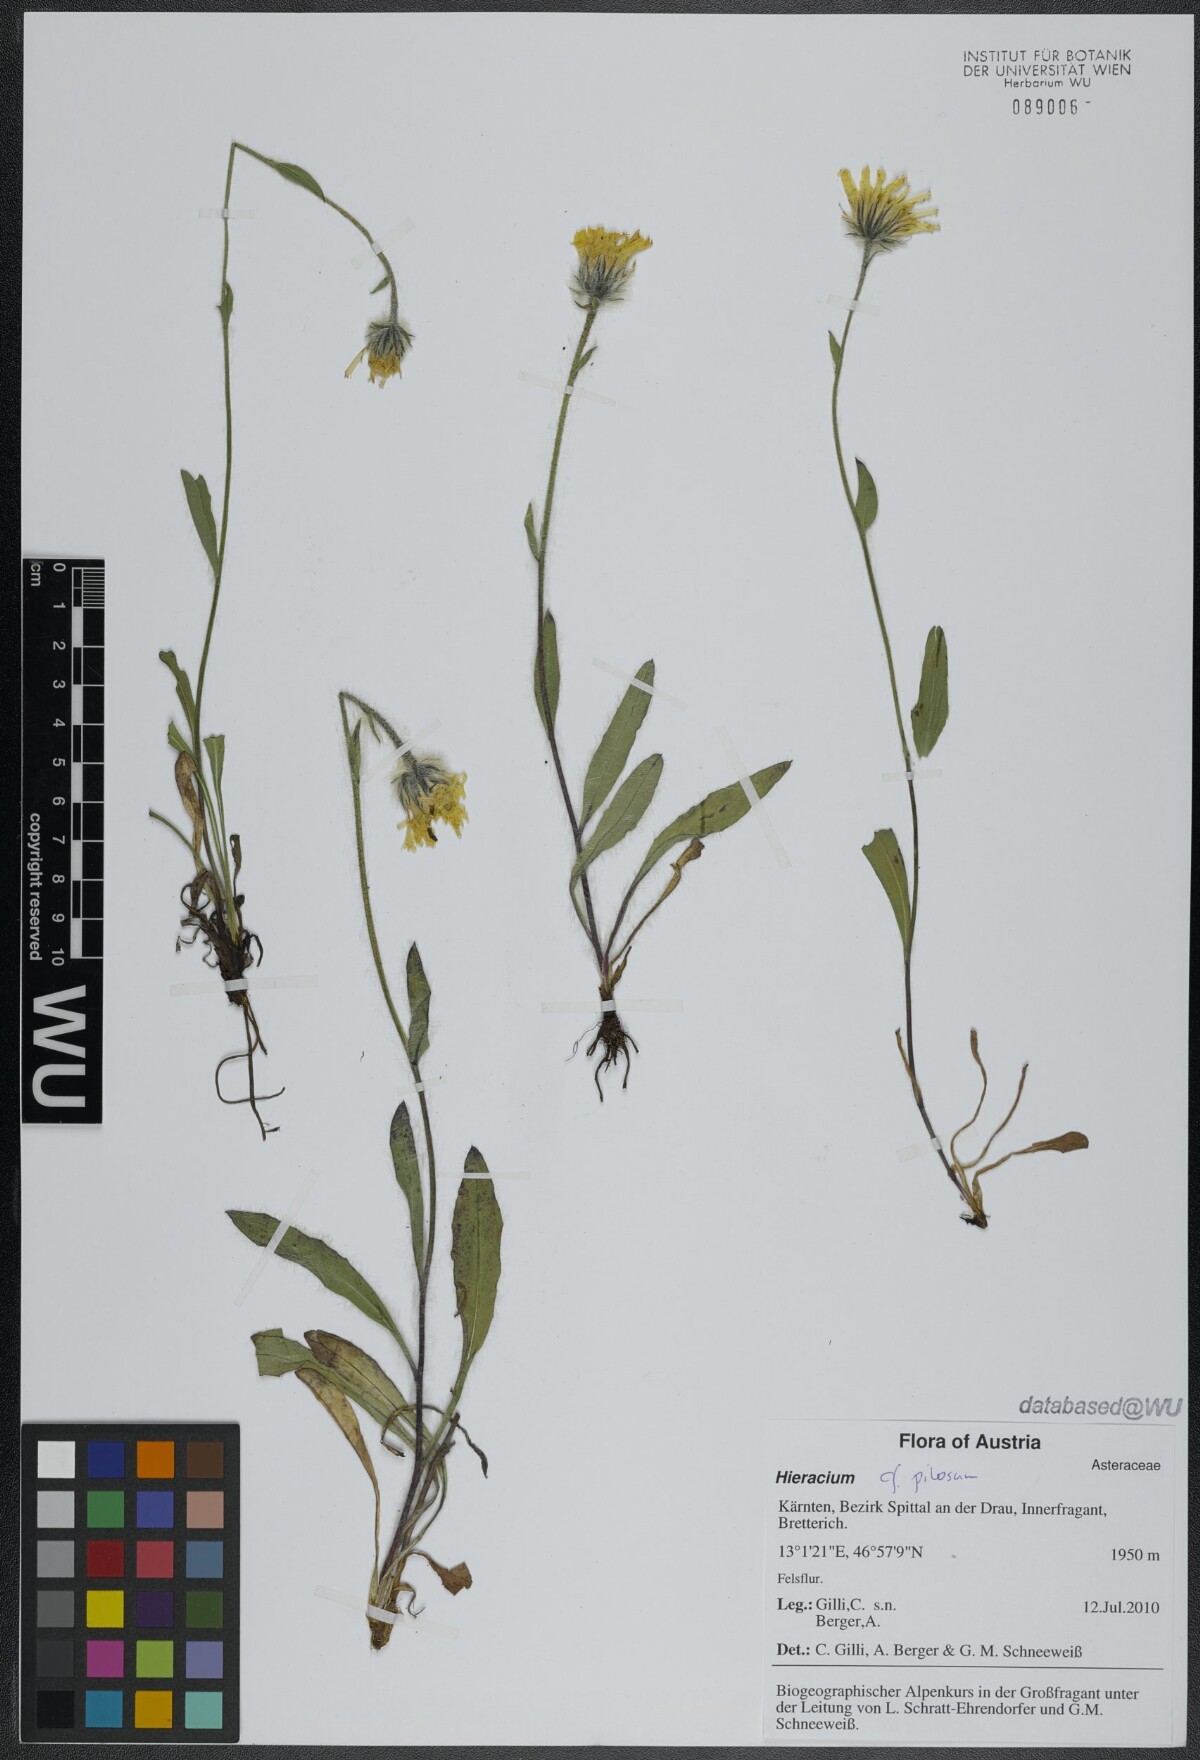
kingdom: Plantae
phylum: Tracheophyta
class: Magnoliopsida
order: Asterales
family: Asteraceae
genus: Hieracium
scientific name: Hieracium
